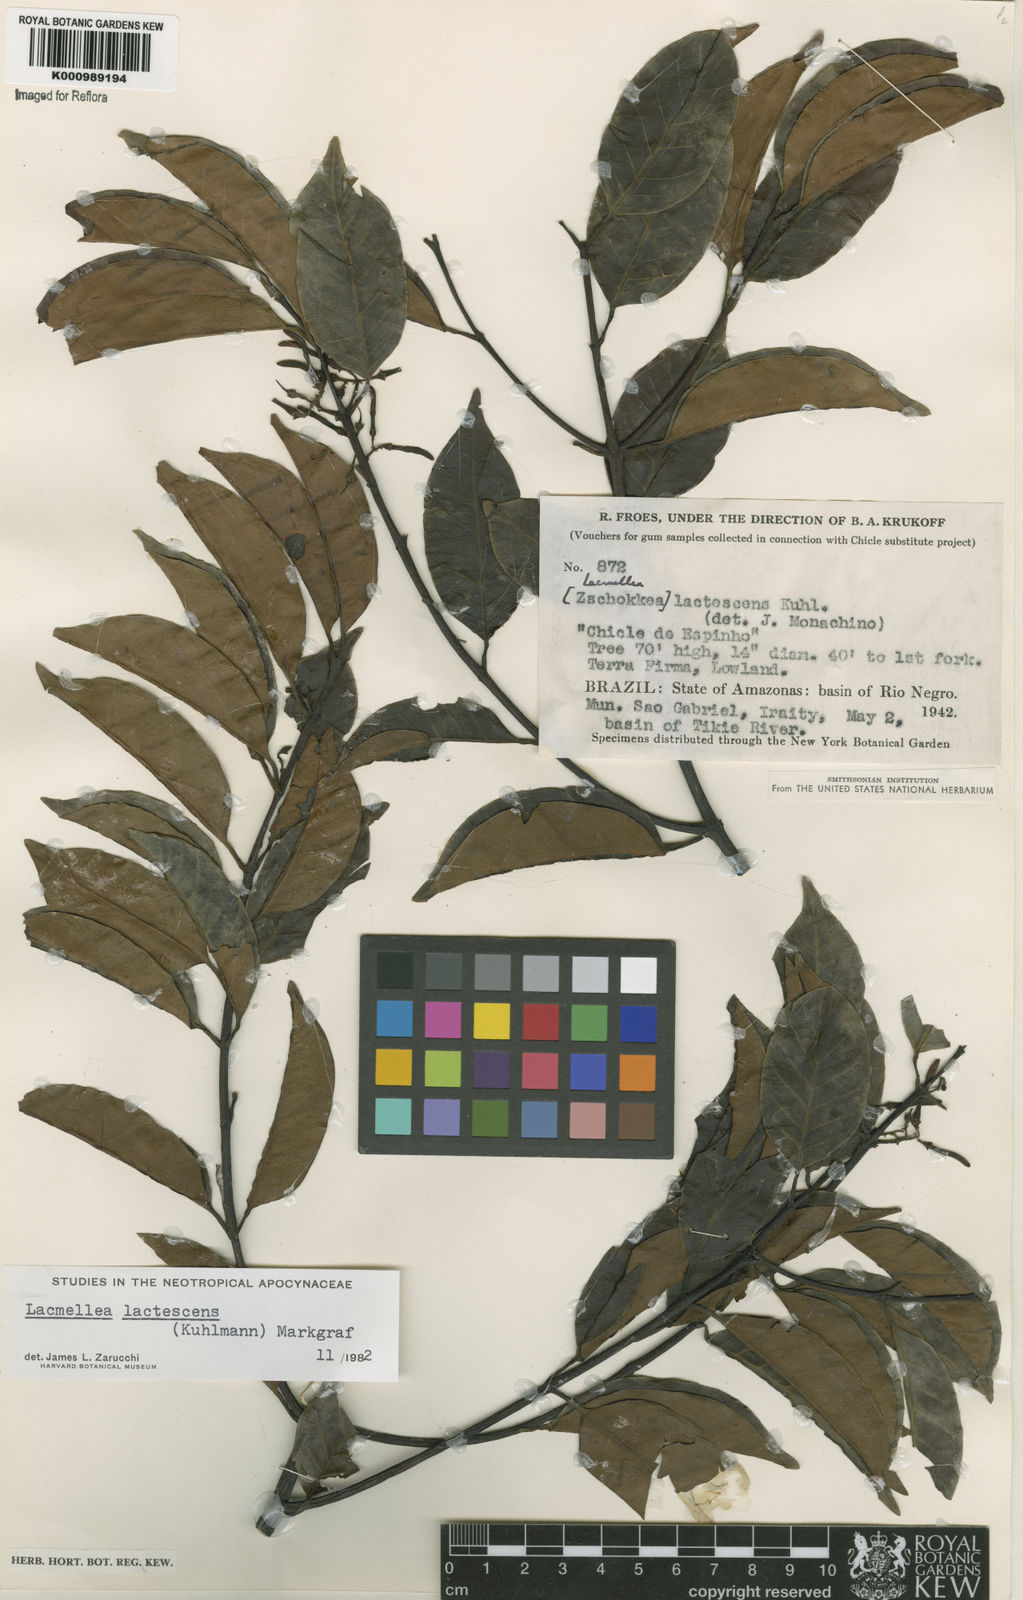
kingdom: Plantae
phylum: Tracheophyta
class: Magnoliopsida
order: Gentianales
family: Apocynaceae
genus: Lacmellea
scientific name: Lacmellea
